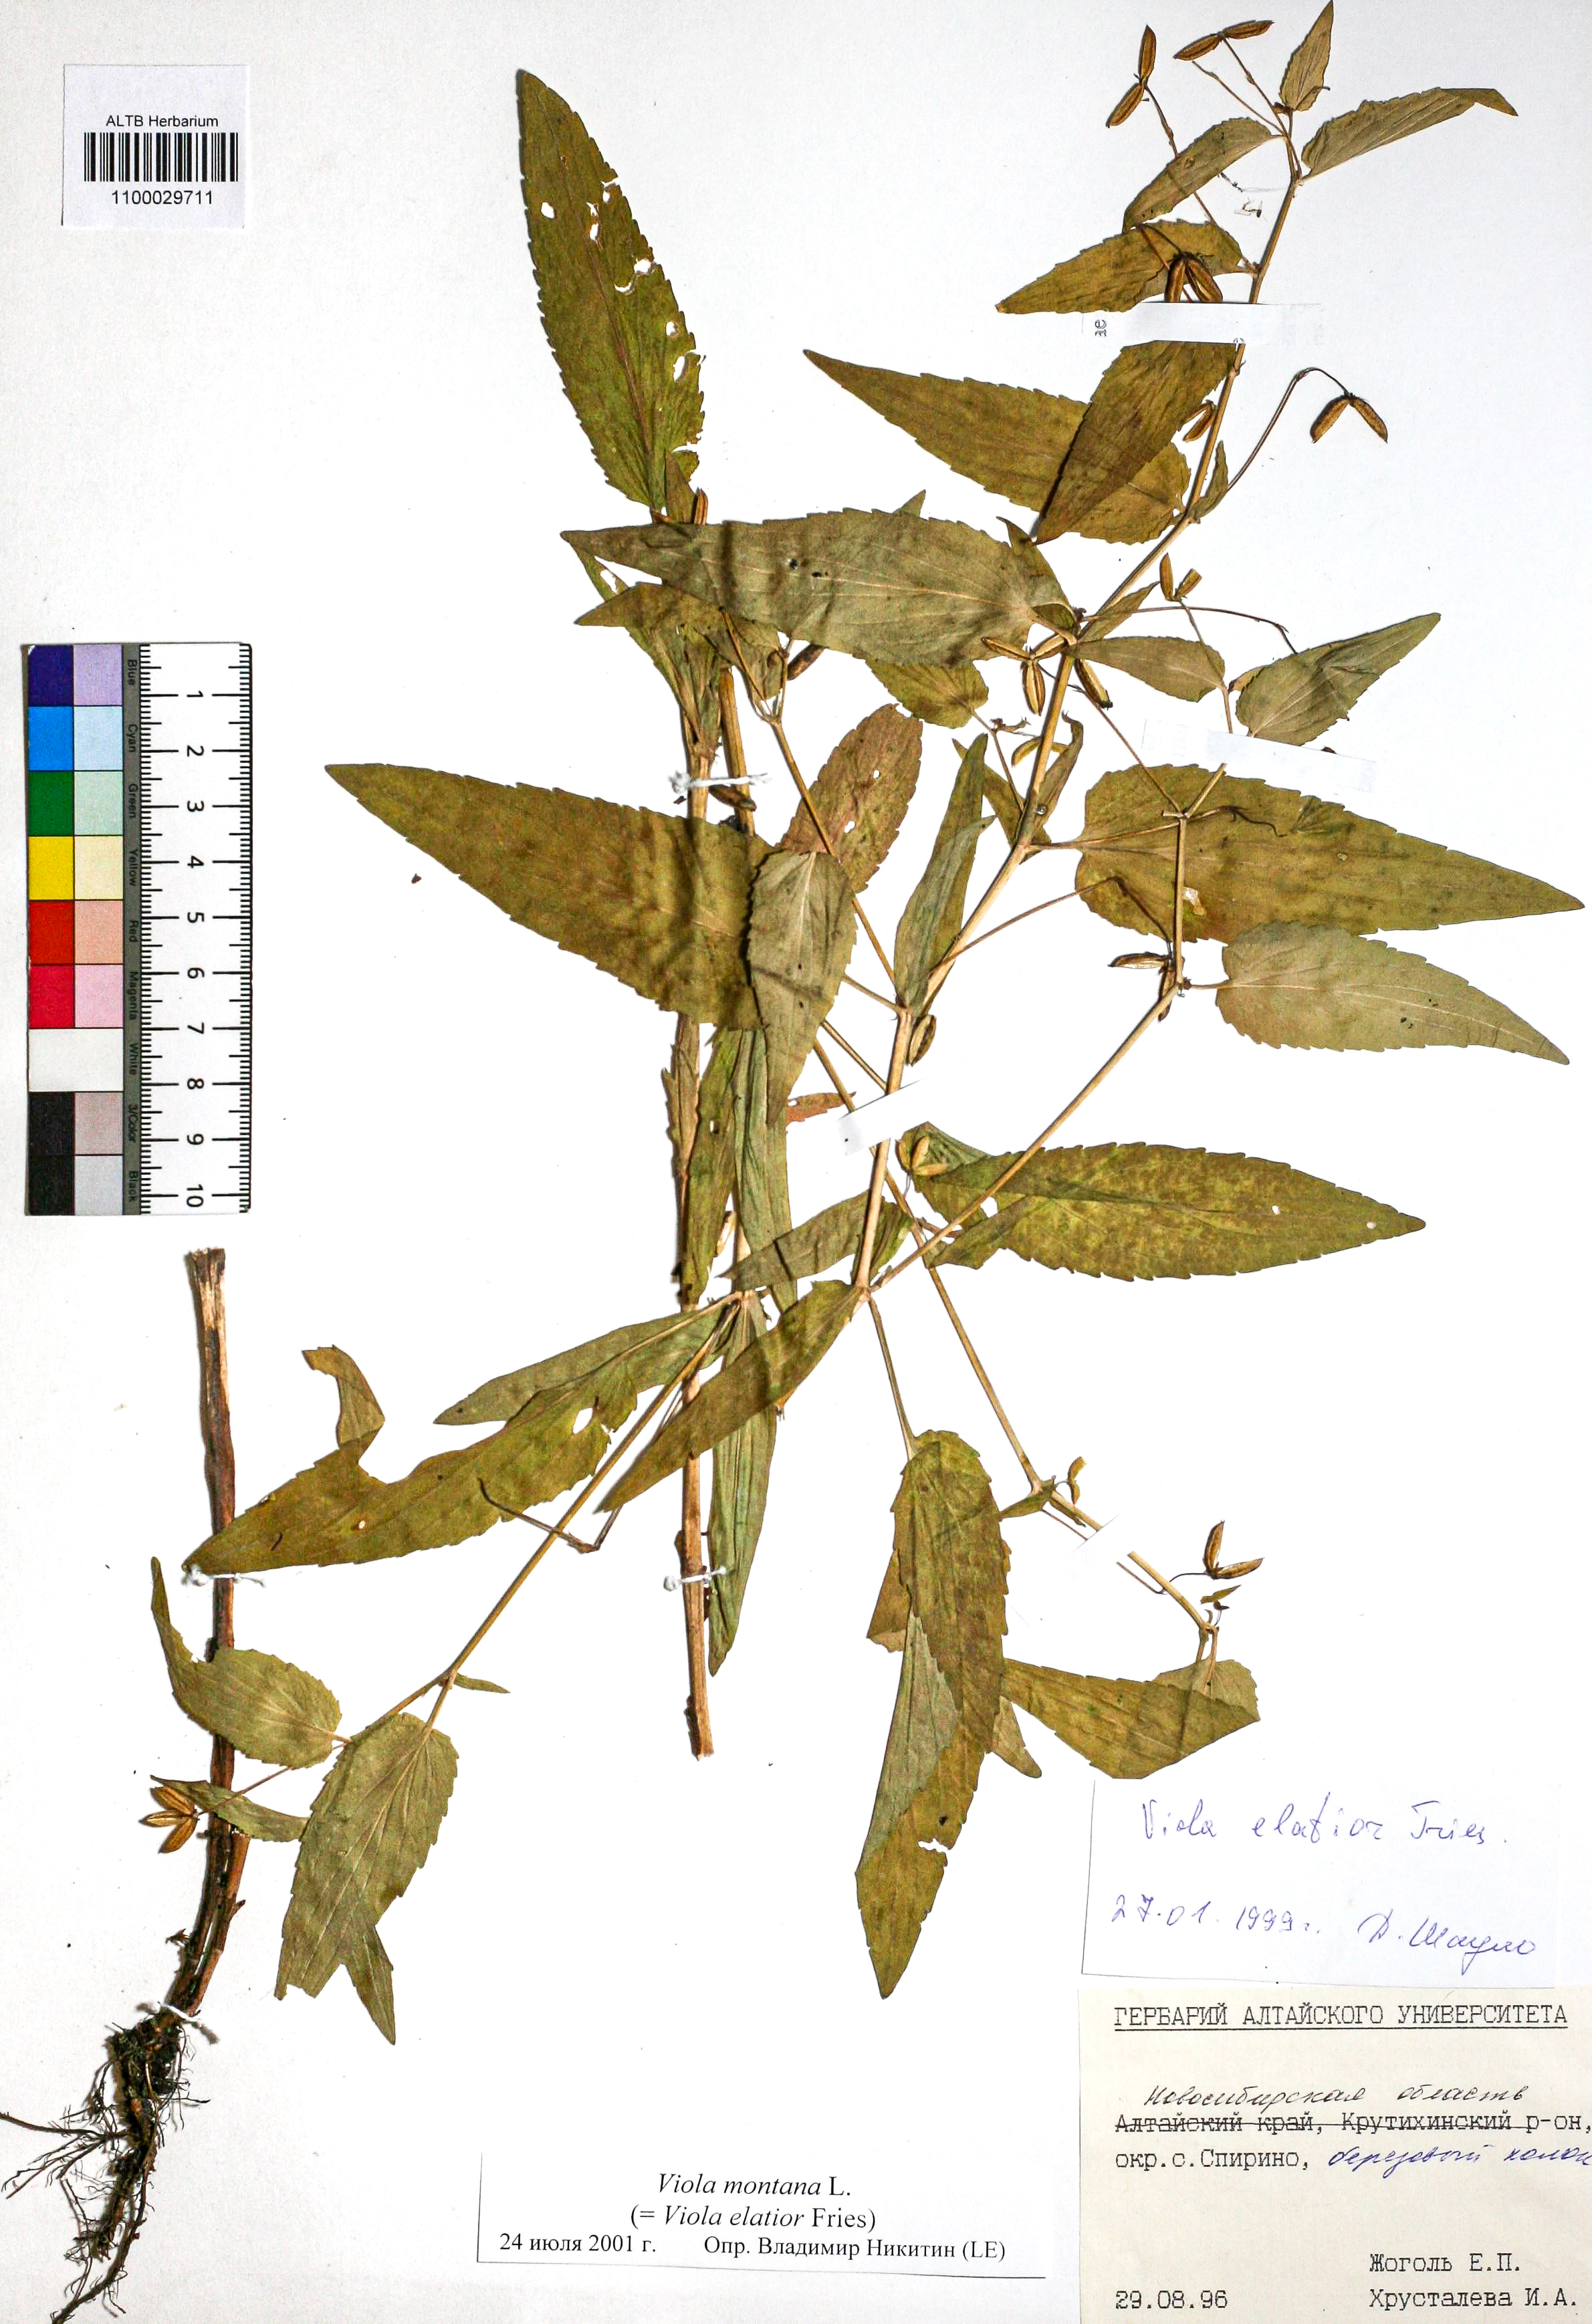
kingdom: Plantae
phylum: Tracheophyta
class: Magnoliopsida
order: Malpighiales
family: Violaceae
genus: Viola
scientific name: Viola ruppii
